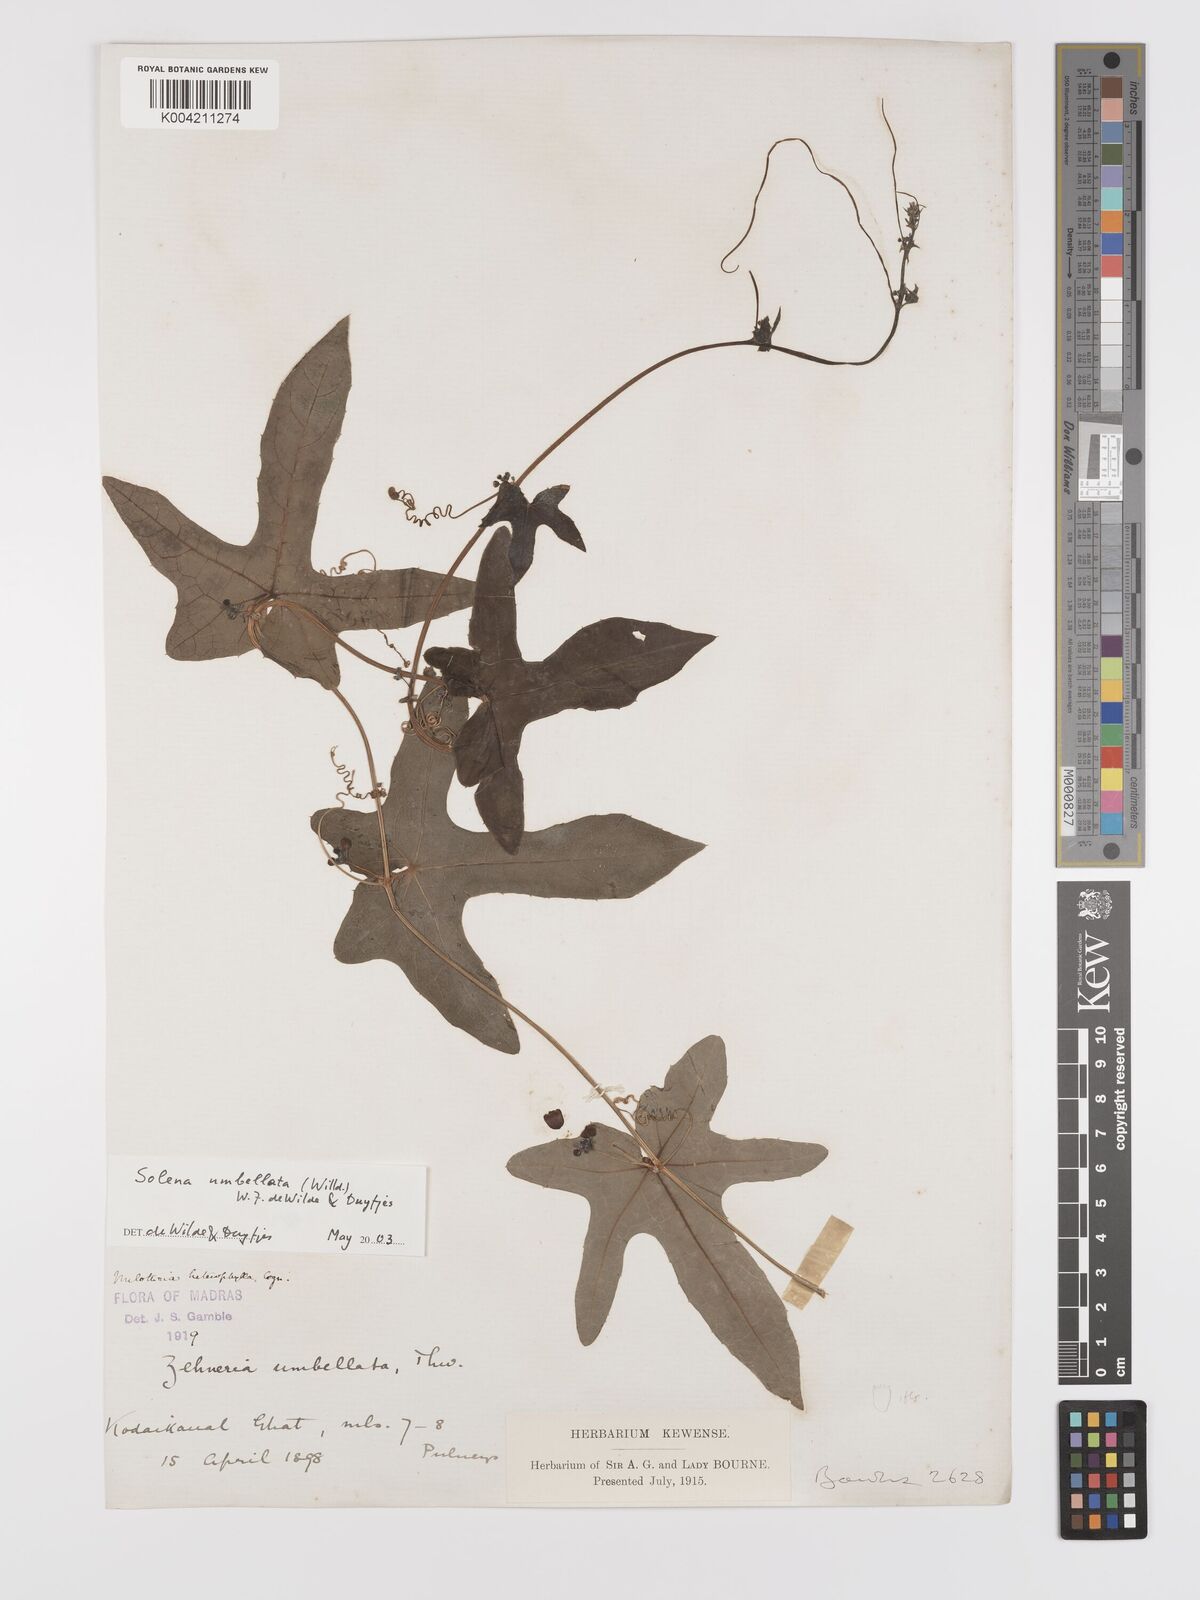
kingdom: Plantae
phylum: Tracheophyta
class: Magnoliopsida
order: Cucurbitales
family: Cucurbitaceae
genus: Solena
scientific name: Solena amplexicaulis
